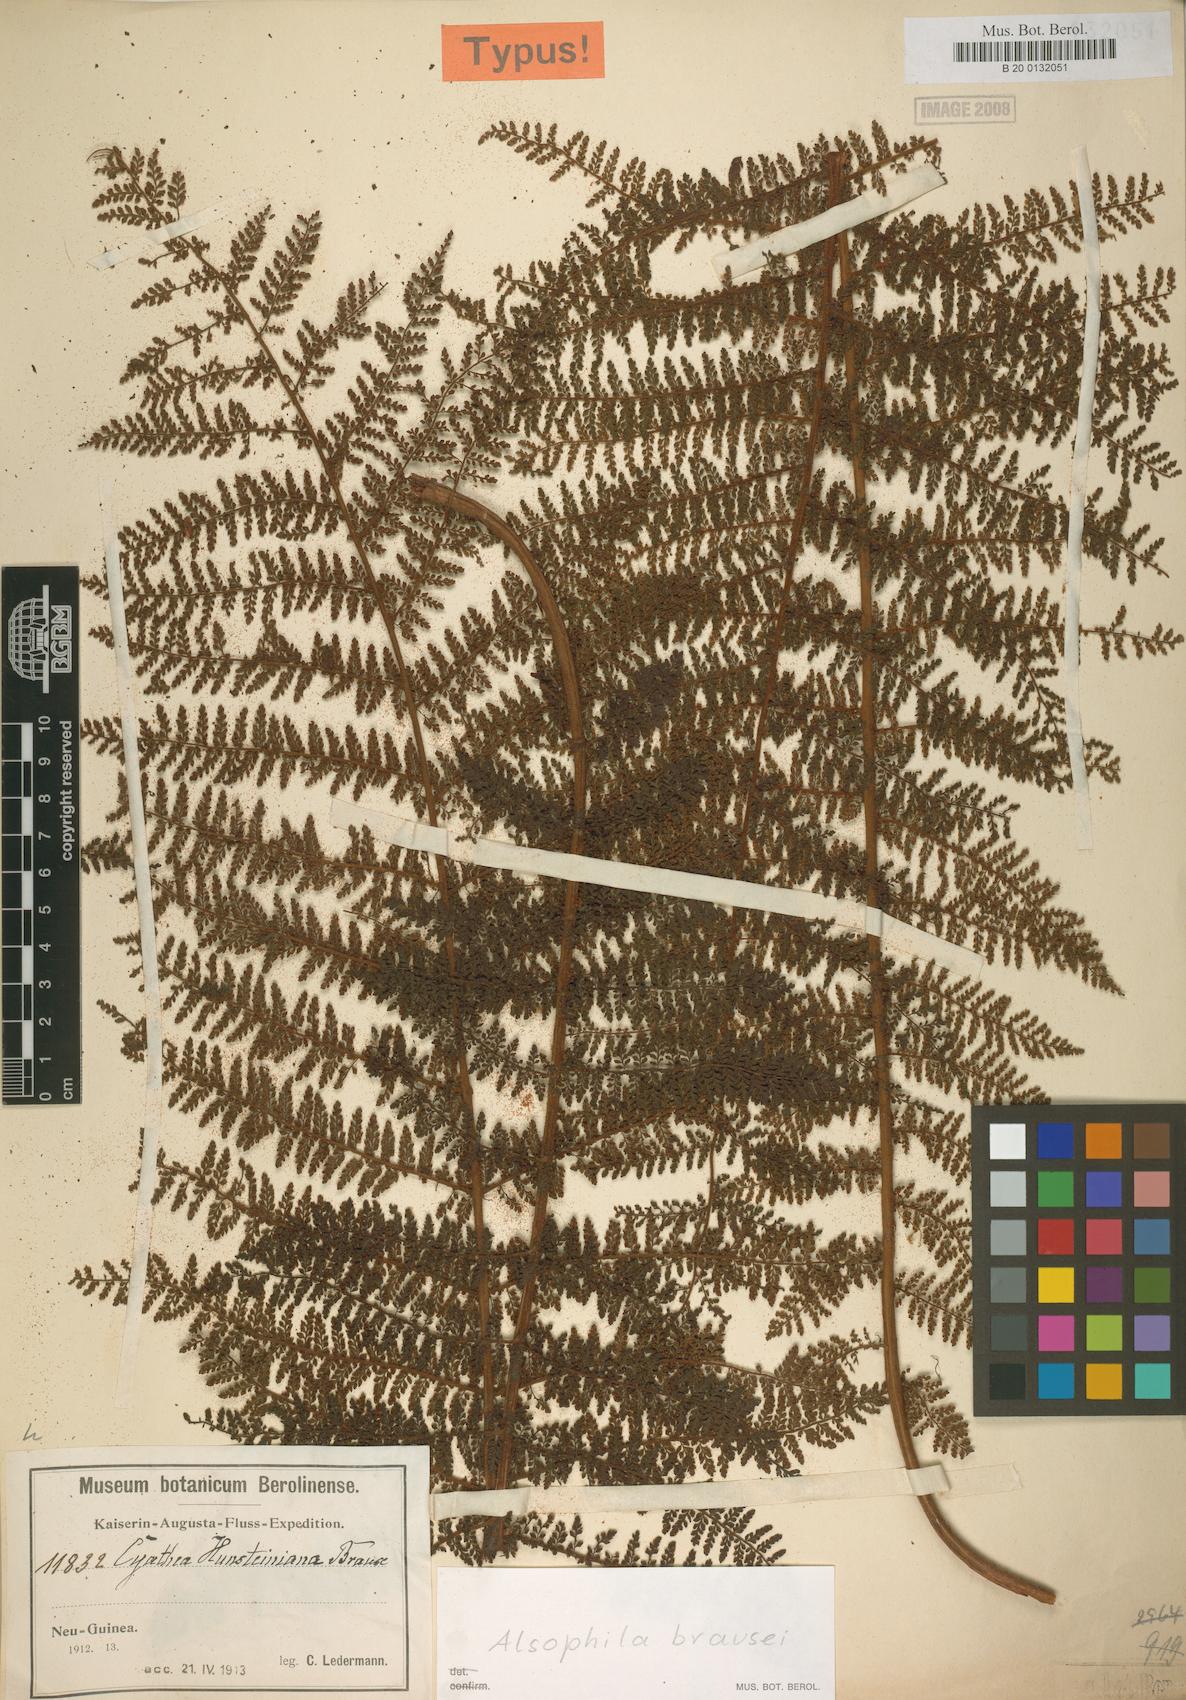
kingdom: Plantae
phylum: Tracheophyta
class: Polypodiopsida
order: Cyatheales
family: Cyatheaceae
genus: Alsophila
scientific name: Alsophila rubiginosa
